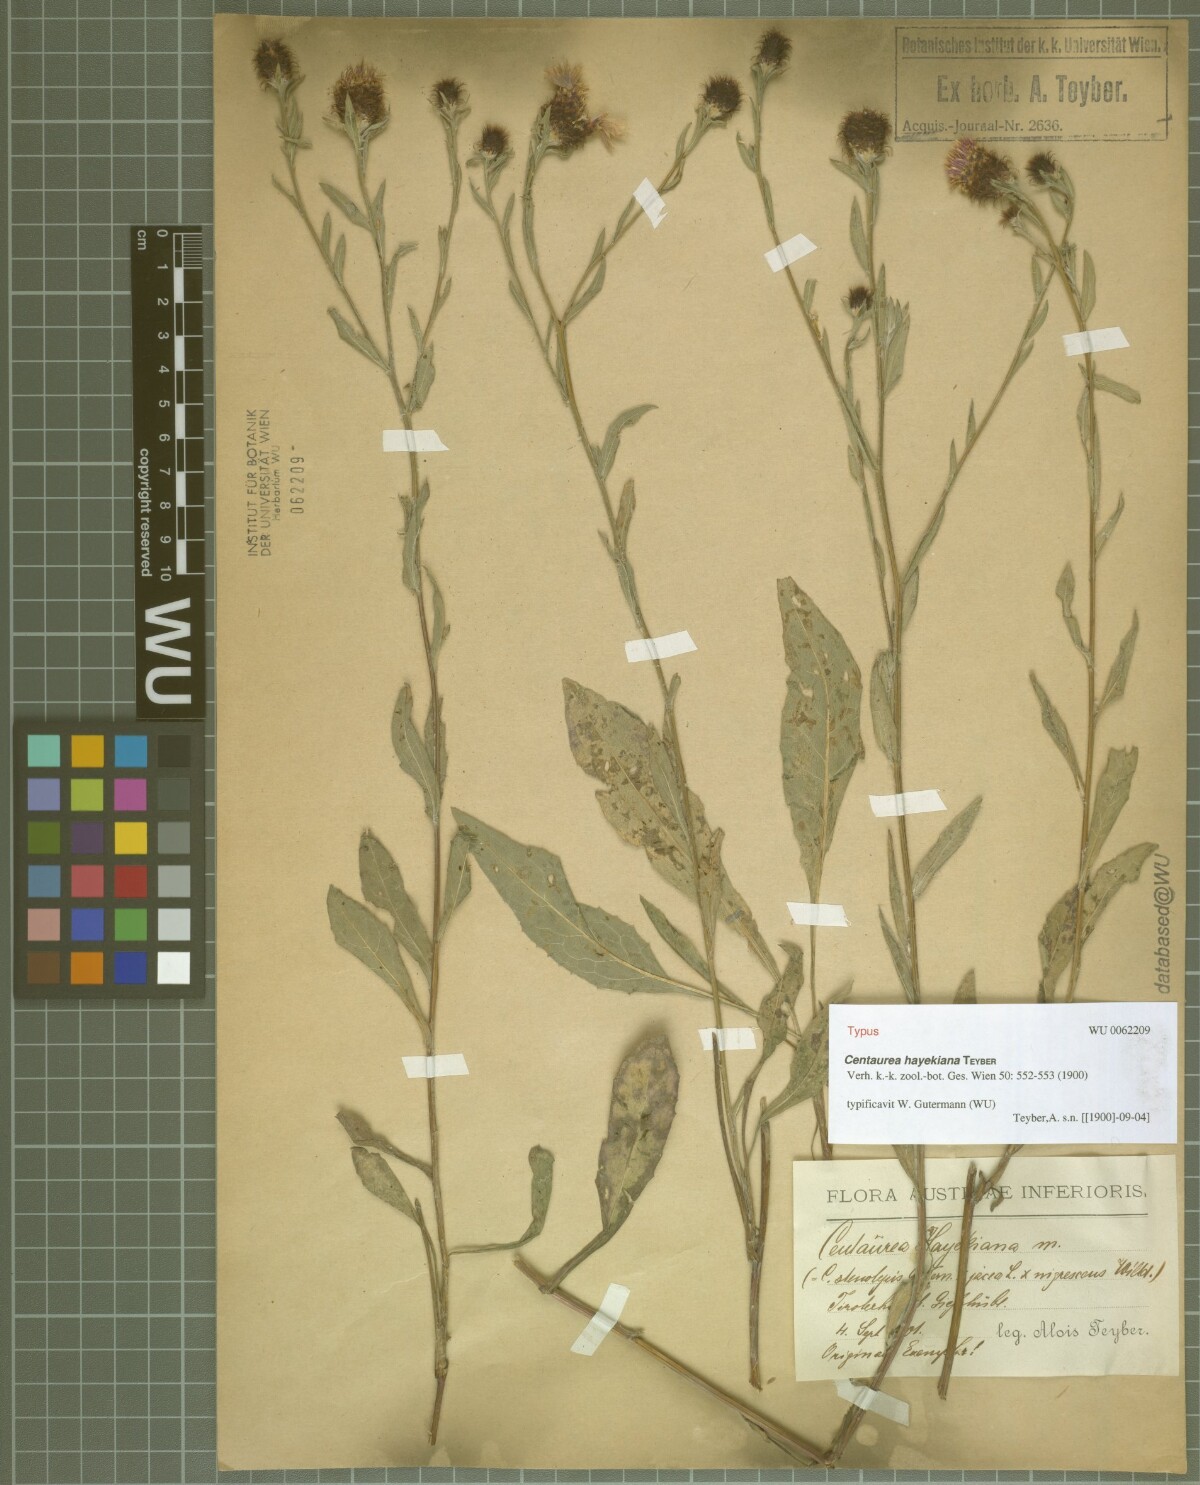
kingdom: Plantae
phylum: Tracheophyta
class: Magnoliopsida
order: Asterales
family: Asteraceae
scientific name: Asteraceae
